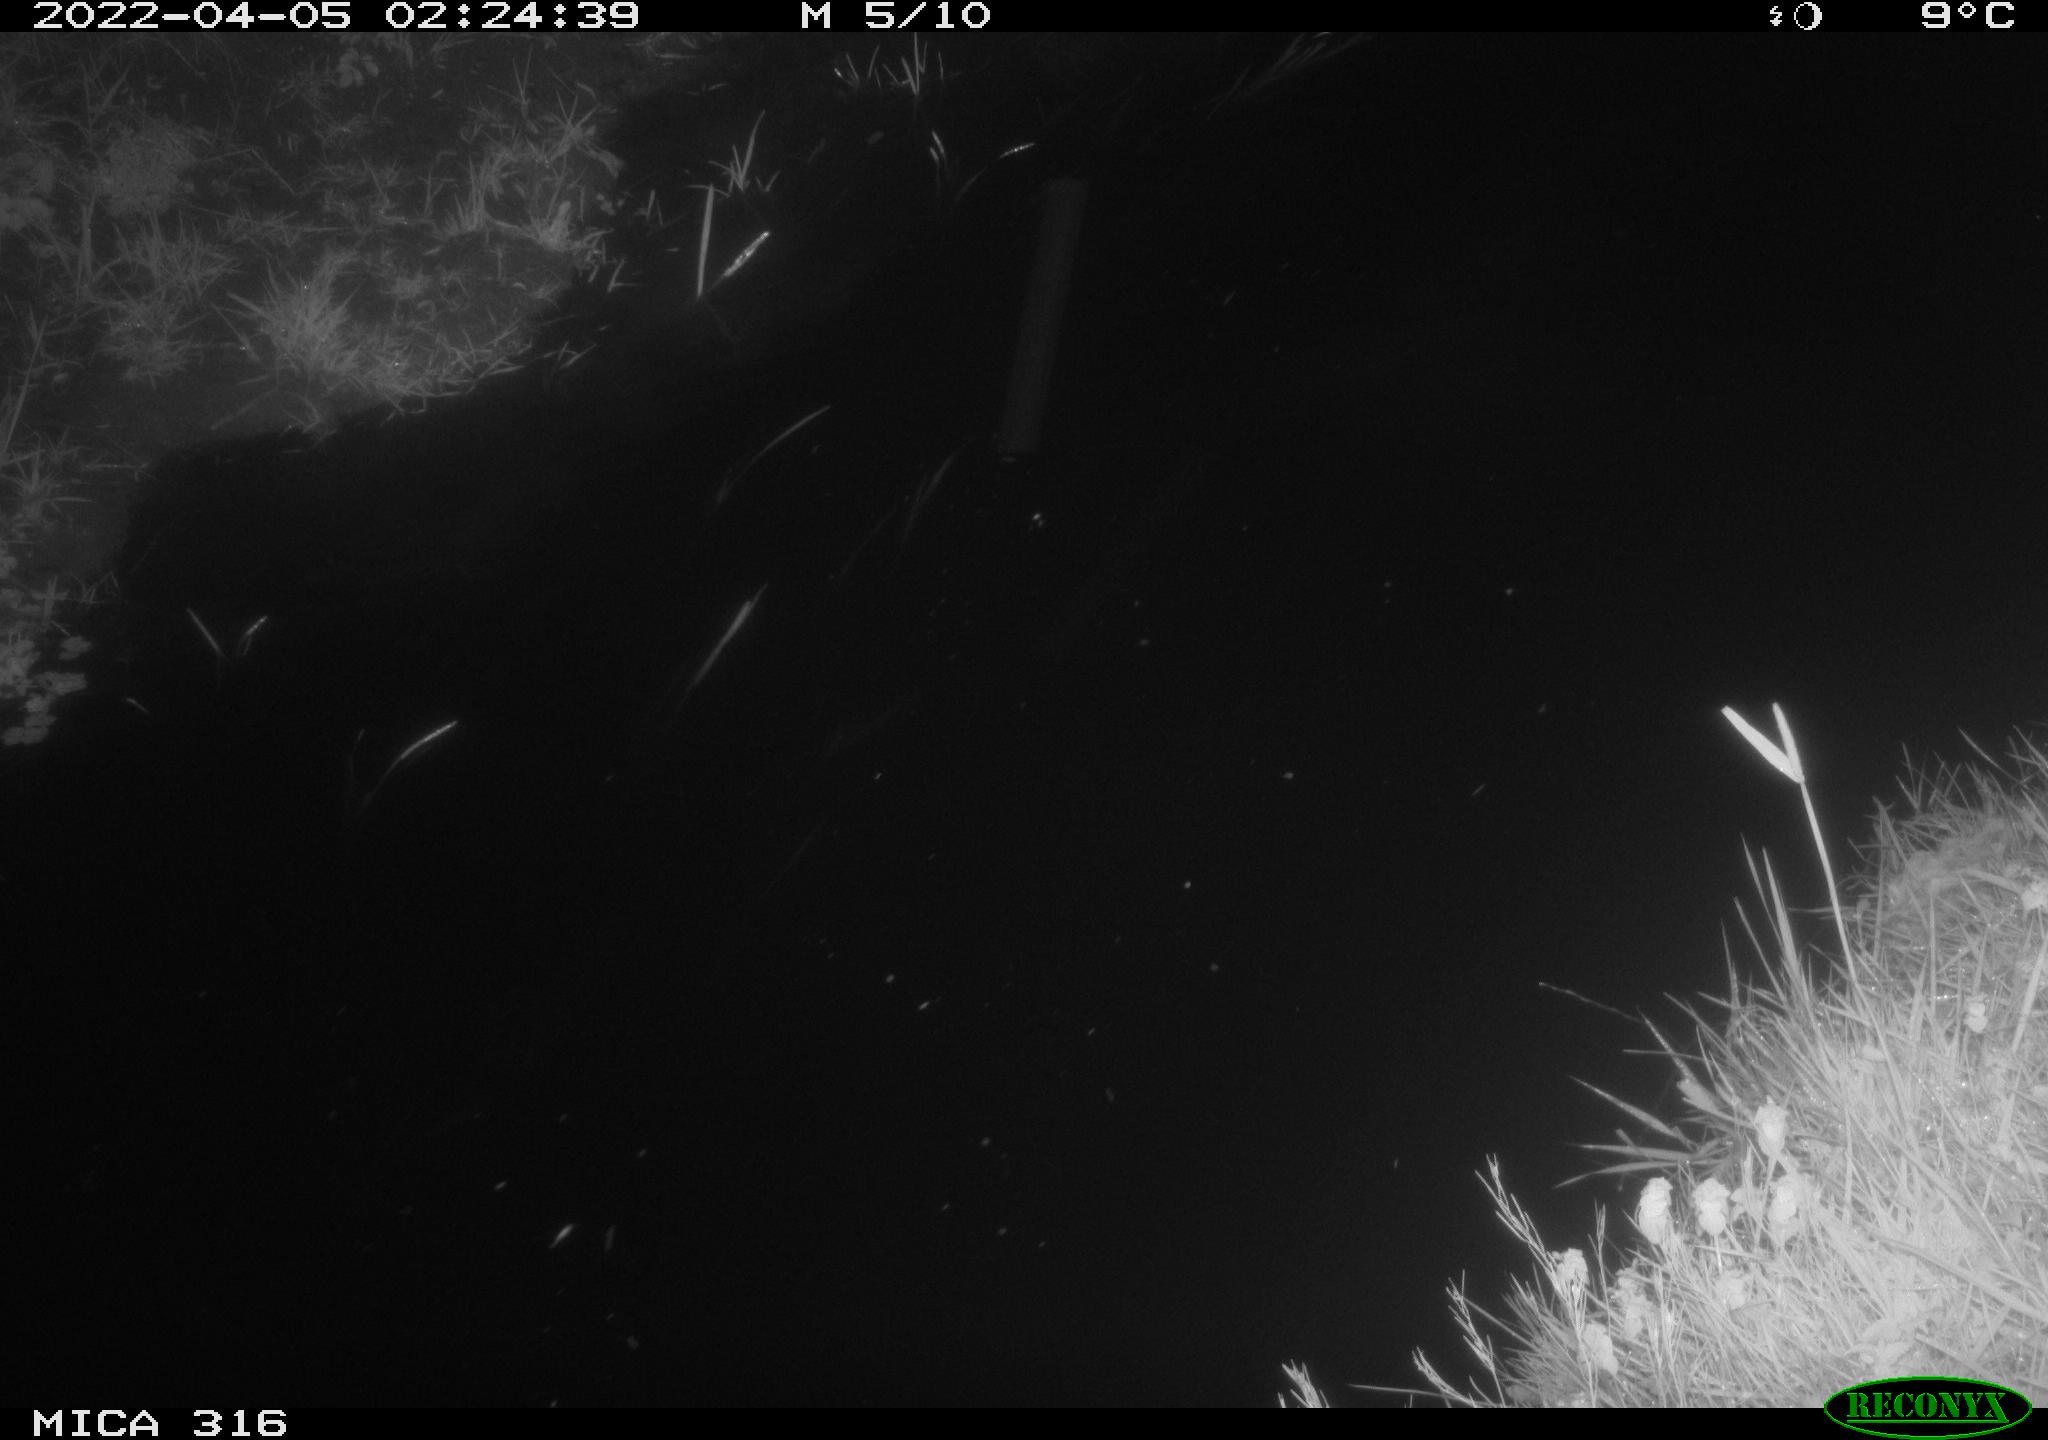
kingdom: Animalia
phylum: Chordata
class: Mammalia
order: Rodentia
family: Cricetidae
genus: Ondatra
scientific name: Ondatra zibethicus
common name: Muskrat
